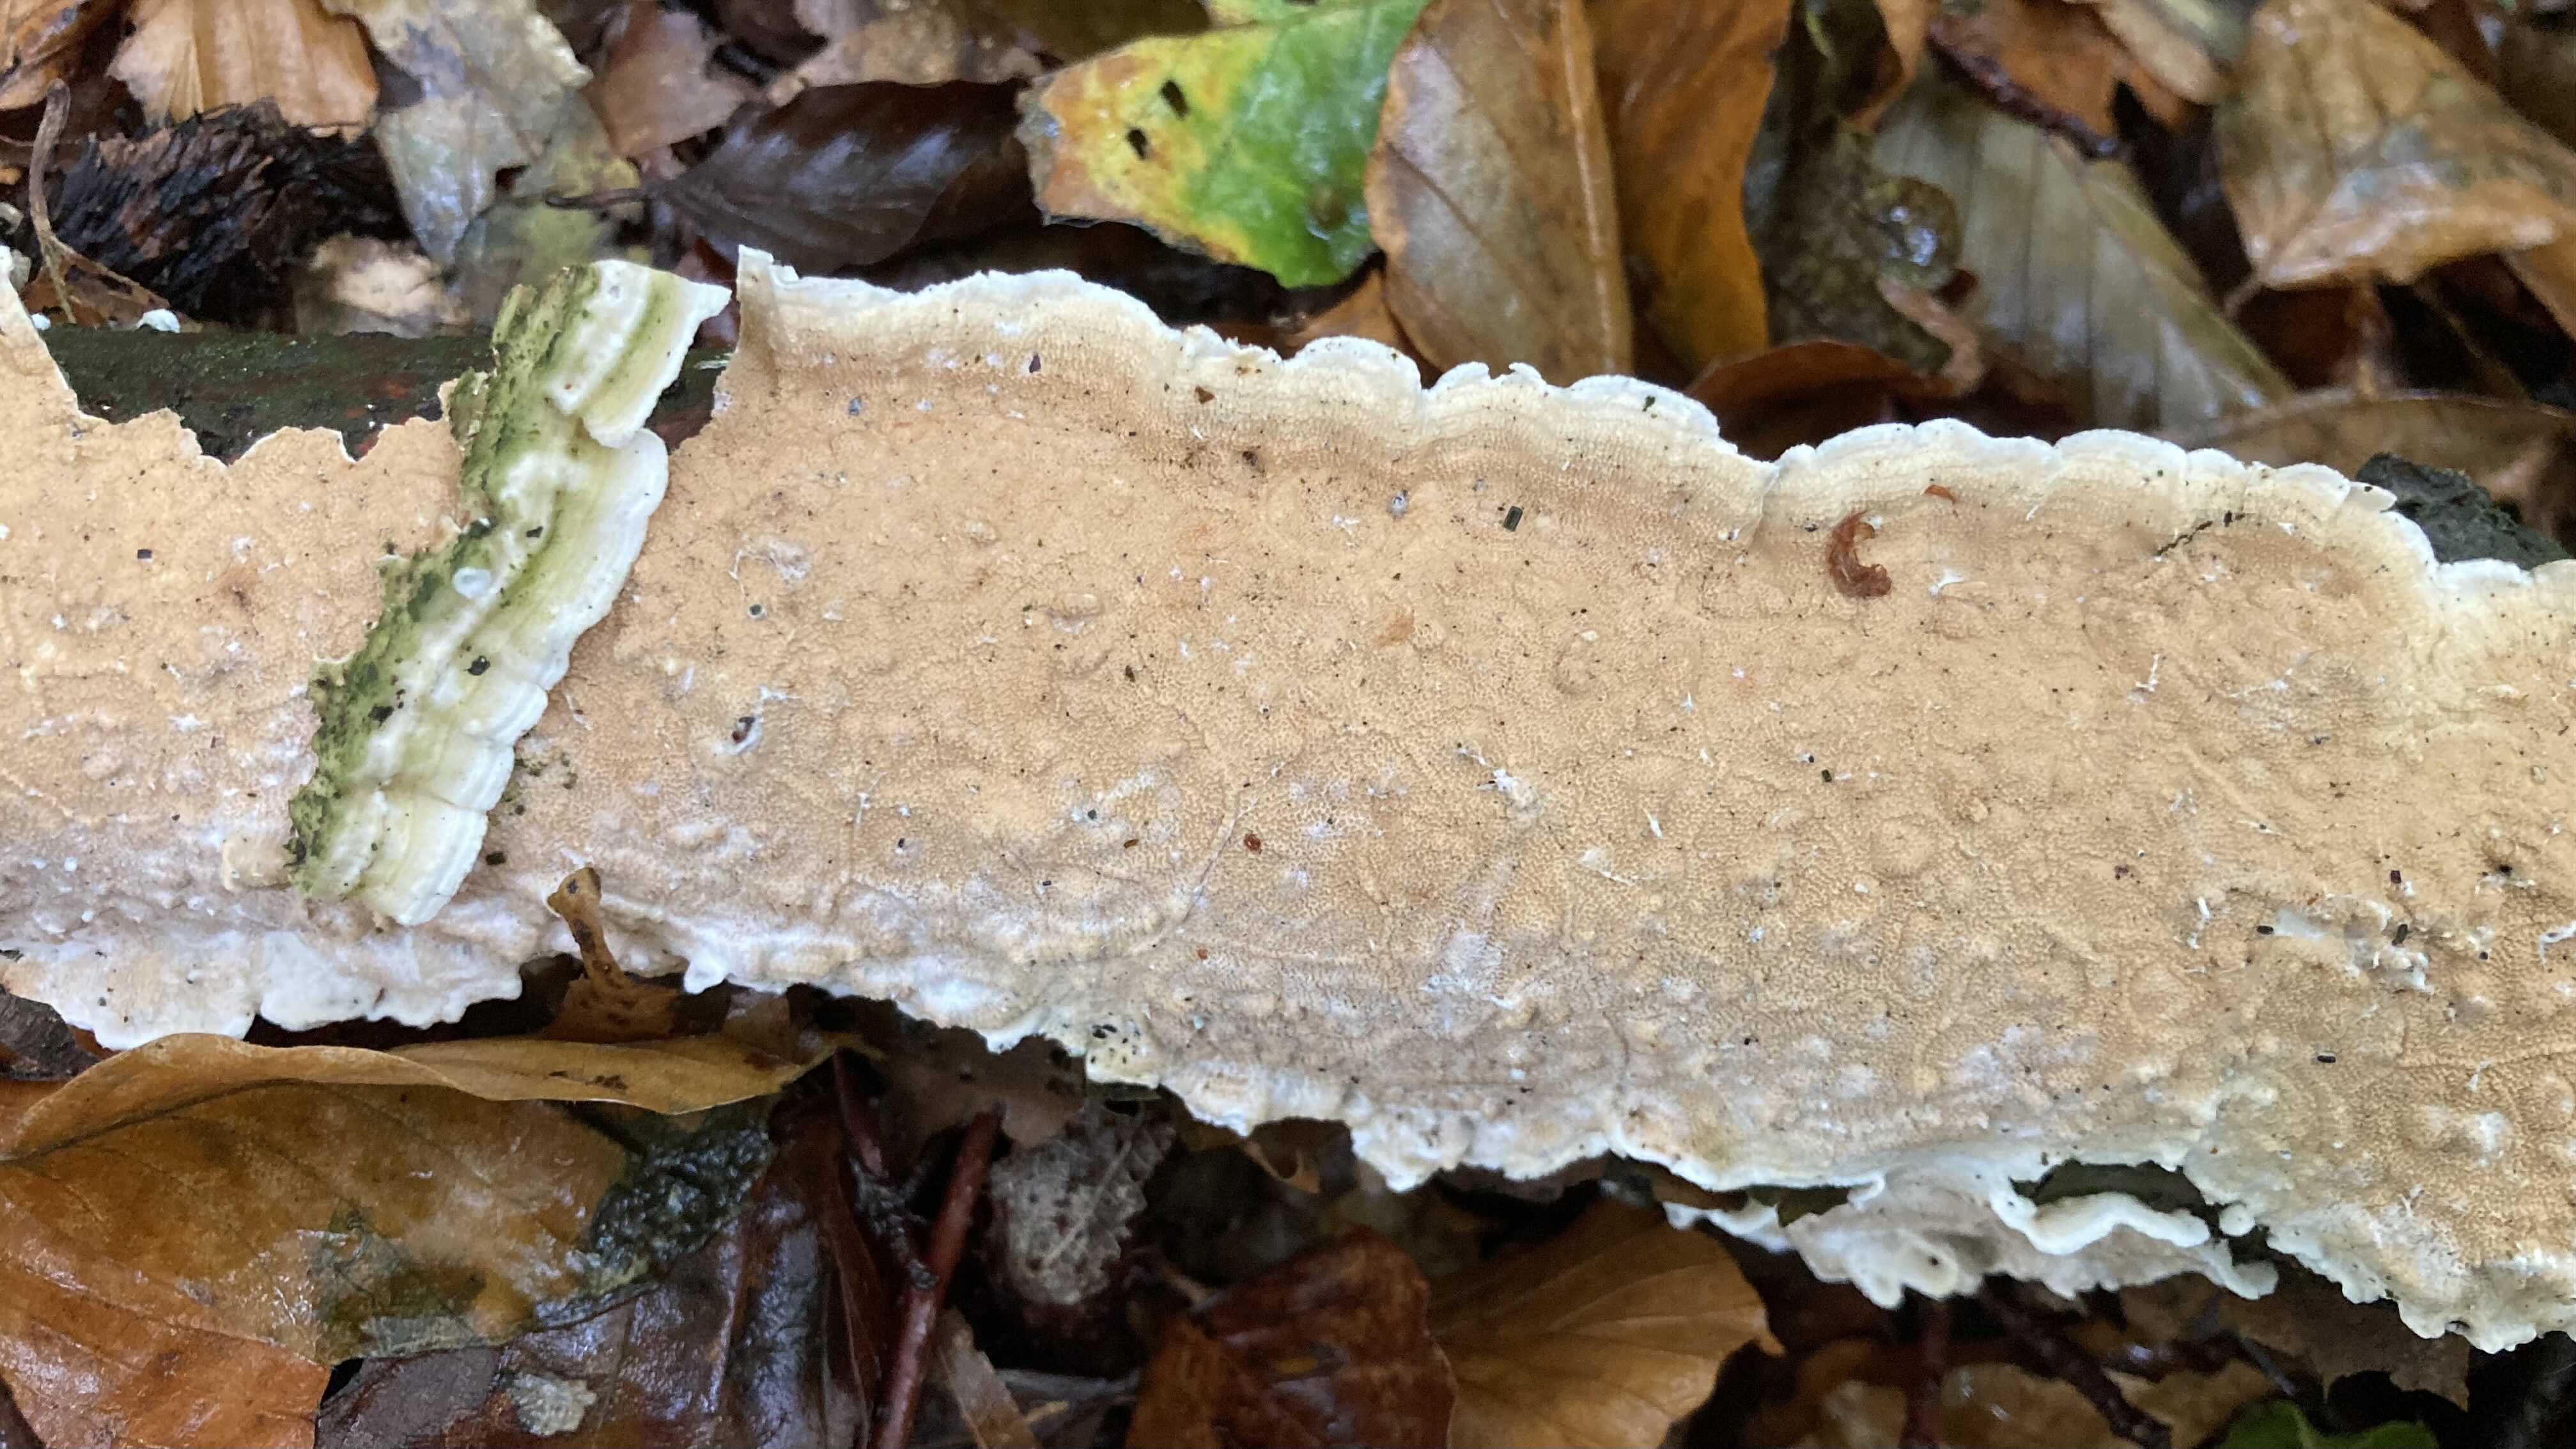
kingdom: Fungi
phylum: Basidiomycota
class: Agaricomycetes
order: Polyporales
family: Irpicaceae
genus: Byssomerulius
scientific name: Byssomerulius corium
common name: læder-åresvamp
